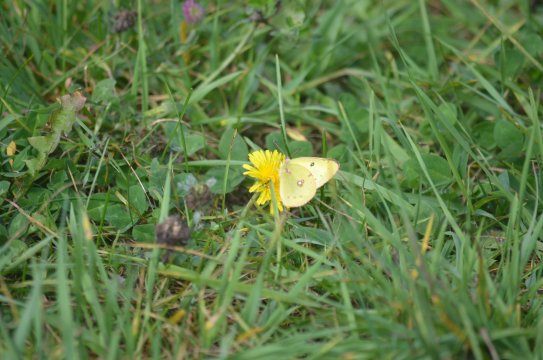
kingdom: Animalia
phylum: Arthropoda
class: Insecta
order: Lepidoptera
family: Pieridae
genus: Colias
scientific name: Colias philodice
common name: Clouded Sulphur
